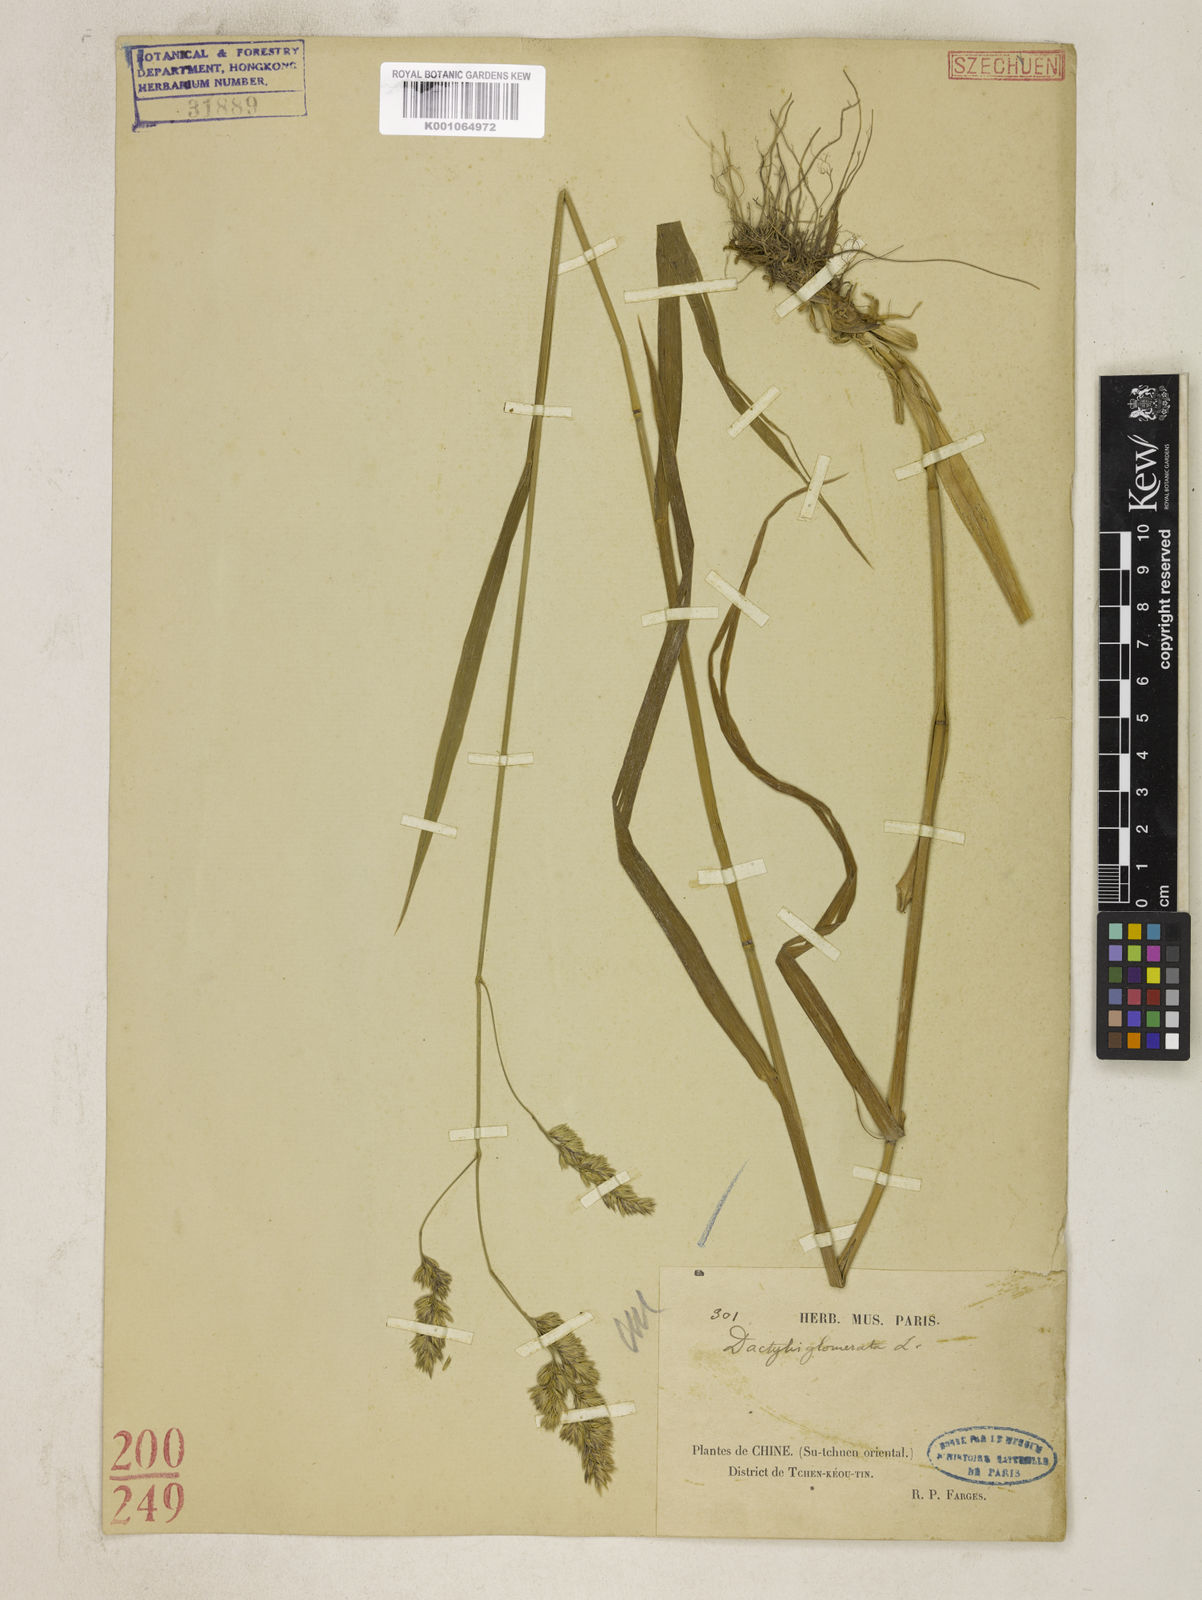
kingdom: Plantae
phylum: Tracheophyta
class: Liliopsida
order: Poales
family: Poaceae
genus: Dactylis
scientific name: Dactylis glomerata
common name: Orchardgrass
